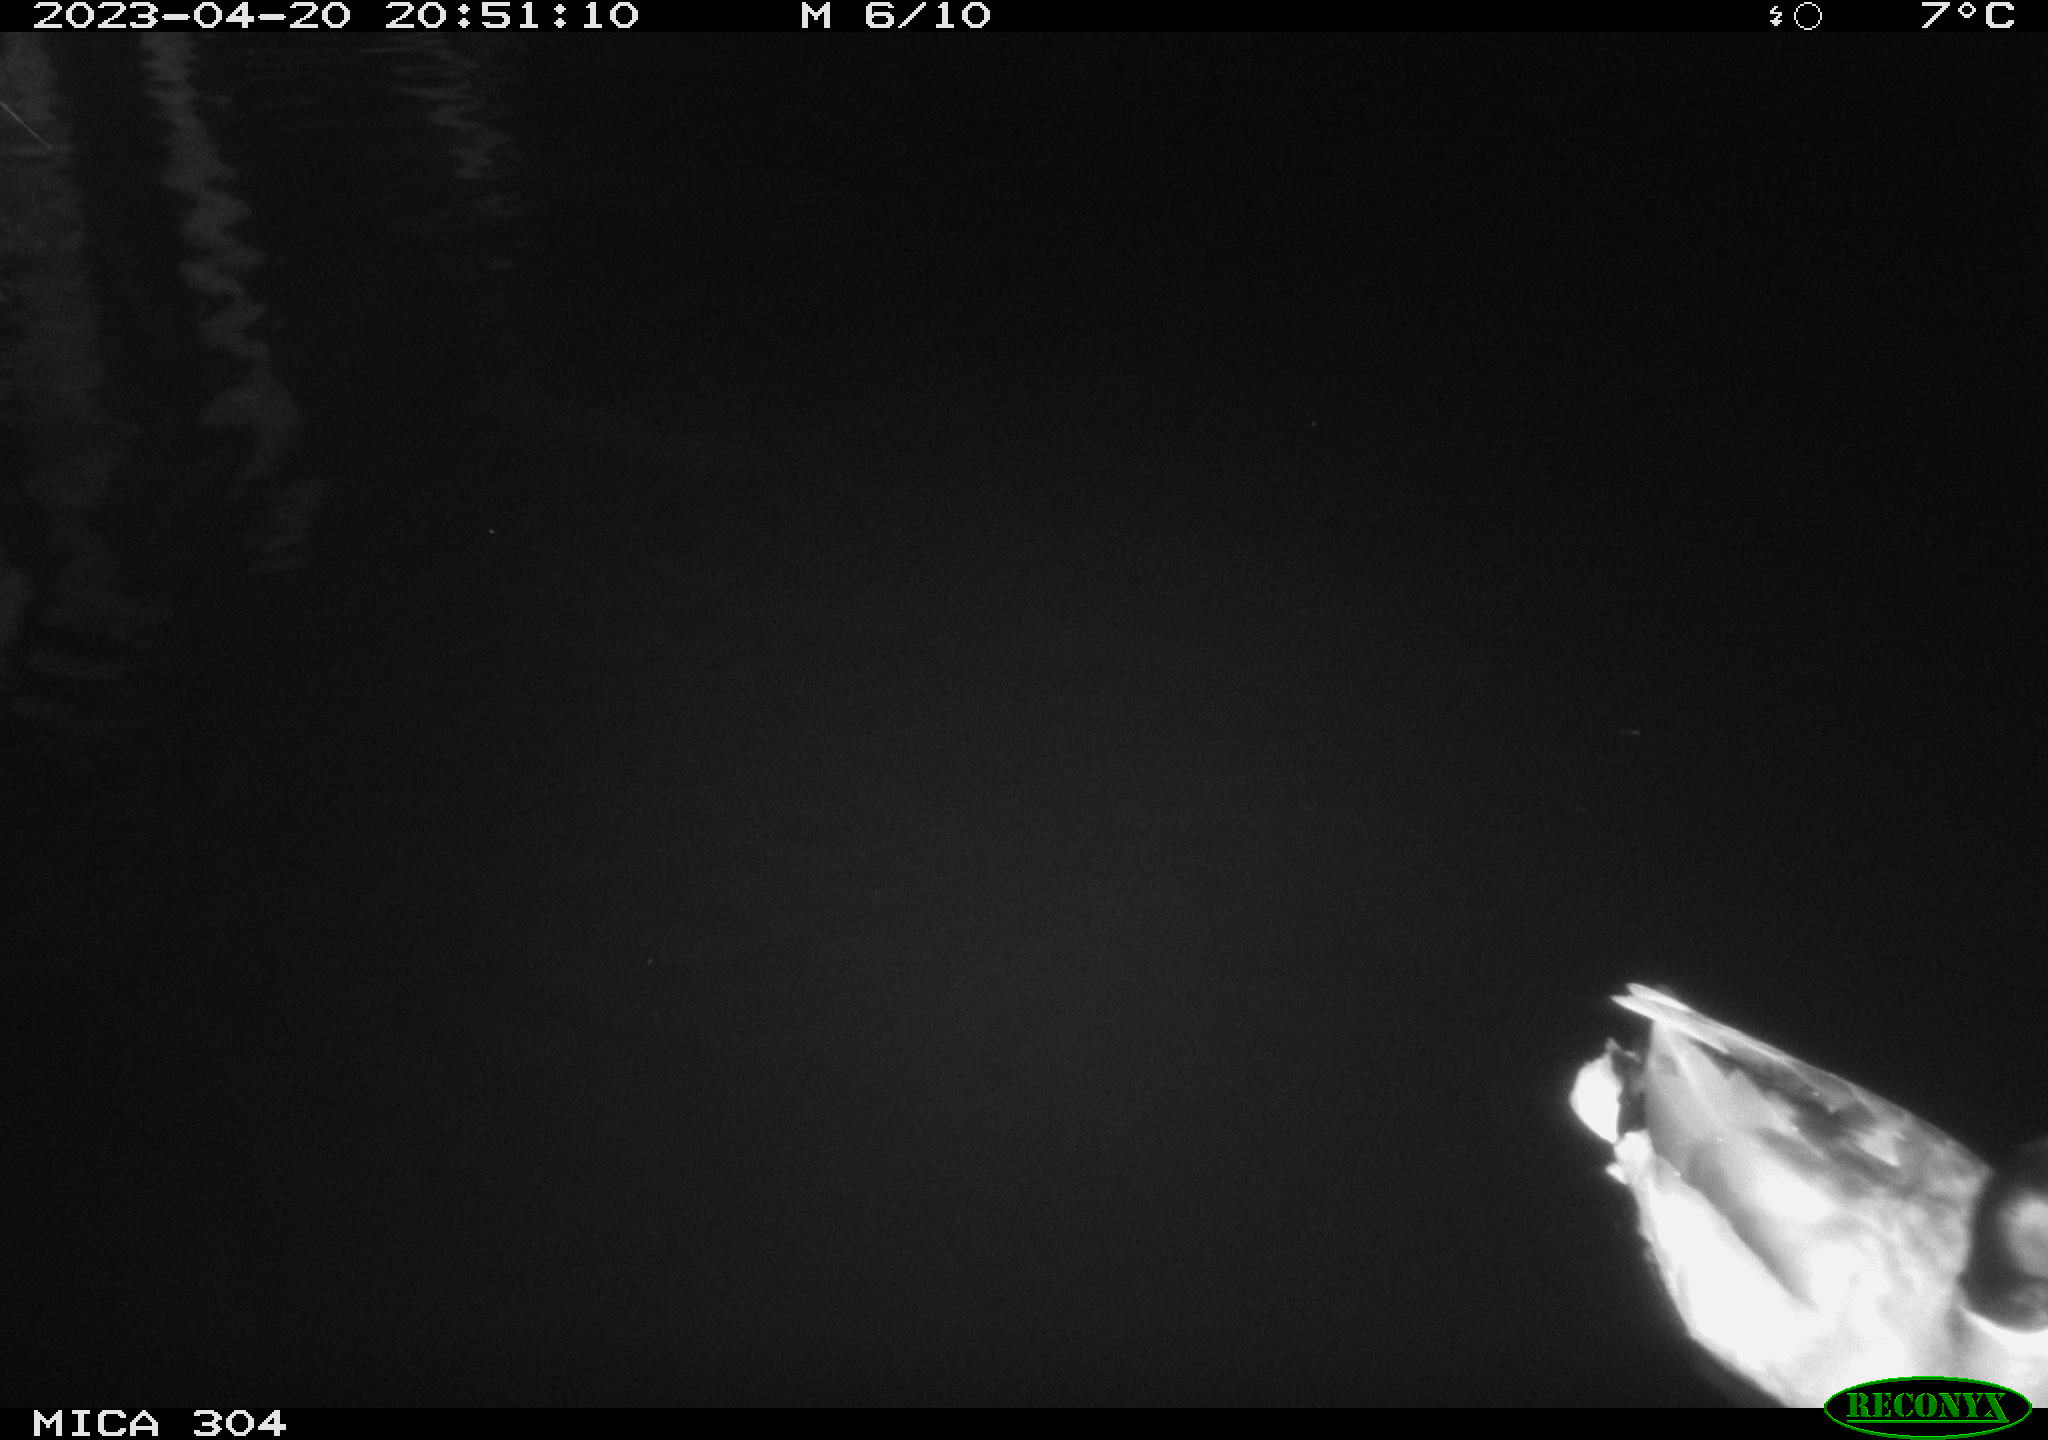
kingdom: Animalia
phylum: Chordata
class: Aves
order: Anseriformes
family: Anatidae
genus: Anas
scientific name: Anas
